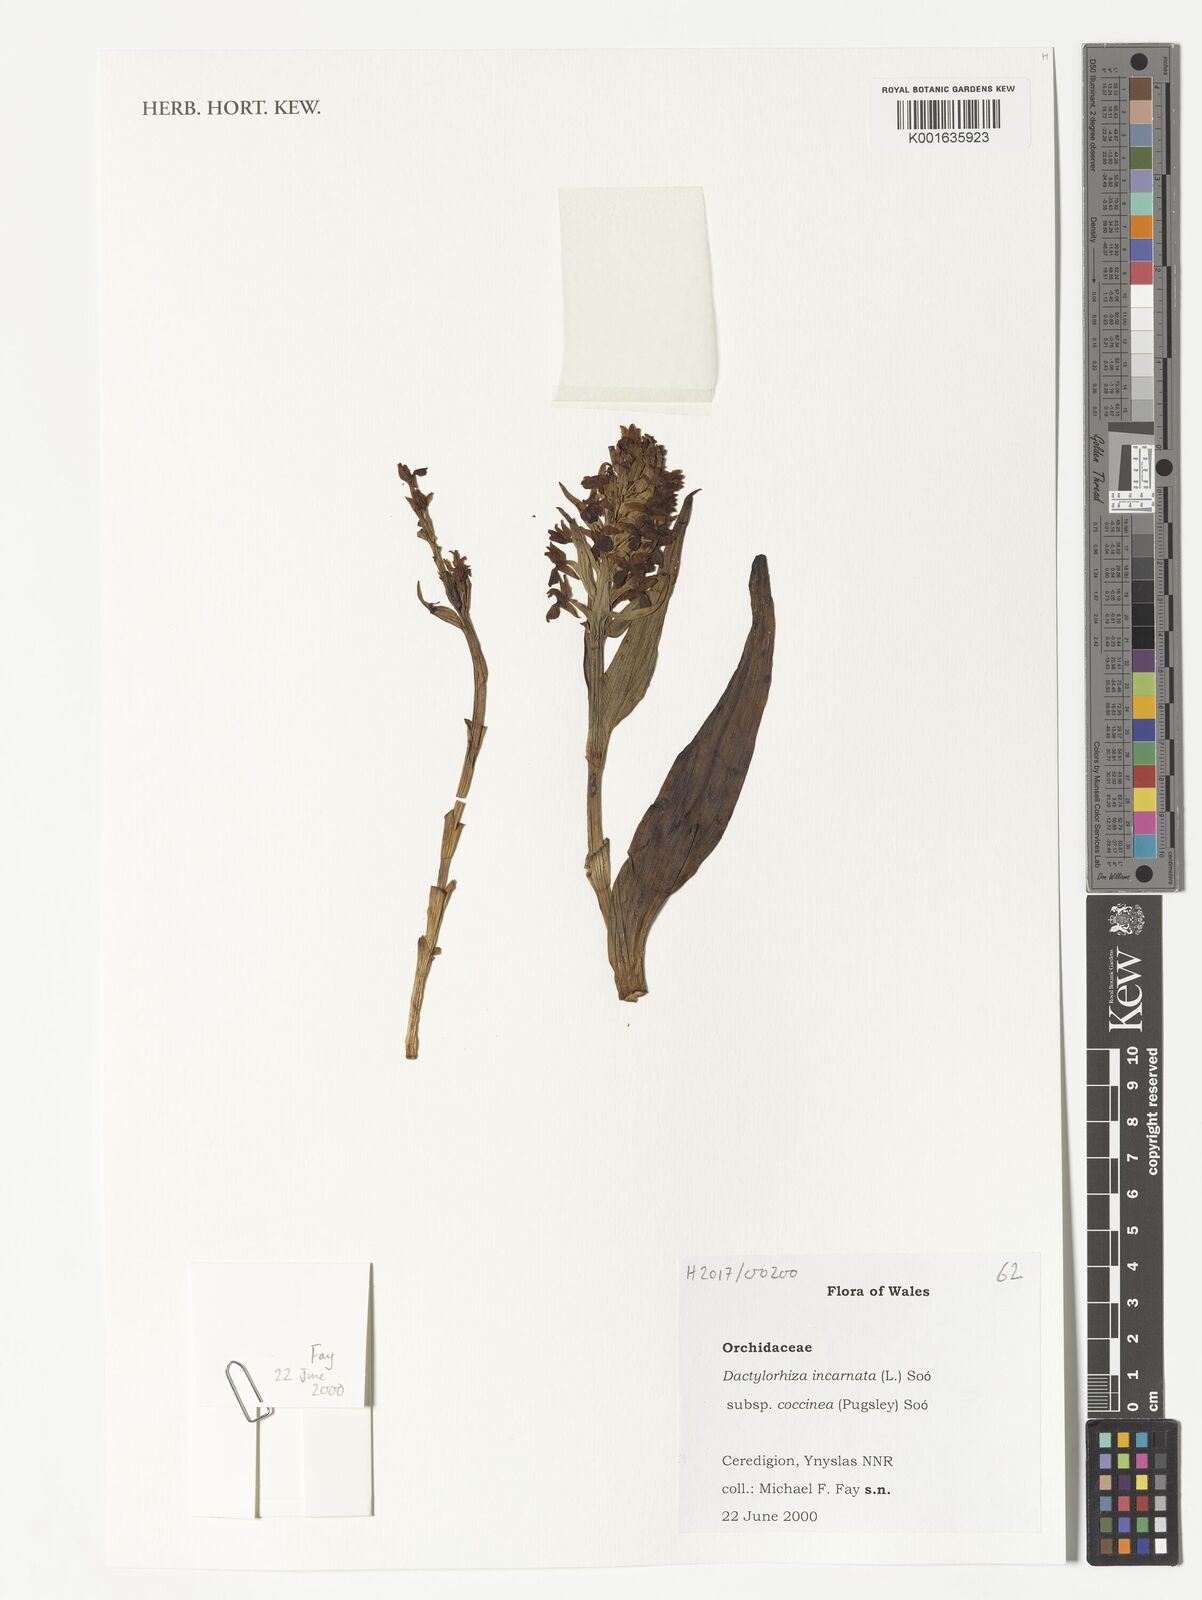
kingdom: Plantae
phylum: Tracheophyta
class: Liliopsida
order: Asparagales
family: Orchidaceae
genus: Dactylorhiza
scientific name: Dactylorhiza incarnata
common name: Early marsh-orchid
